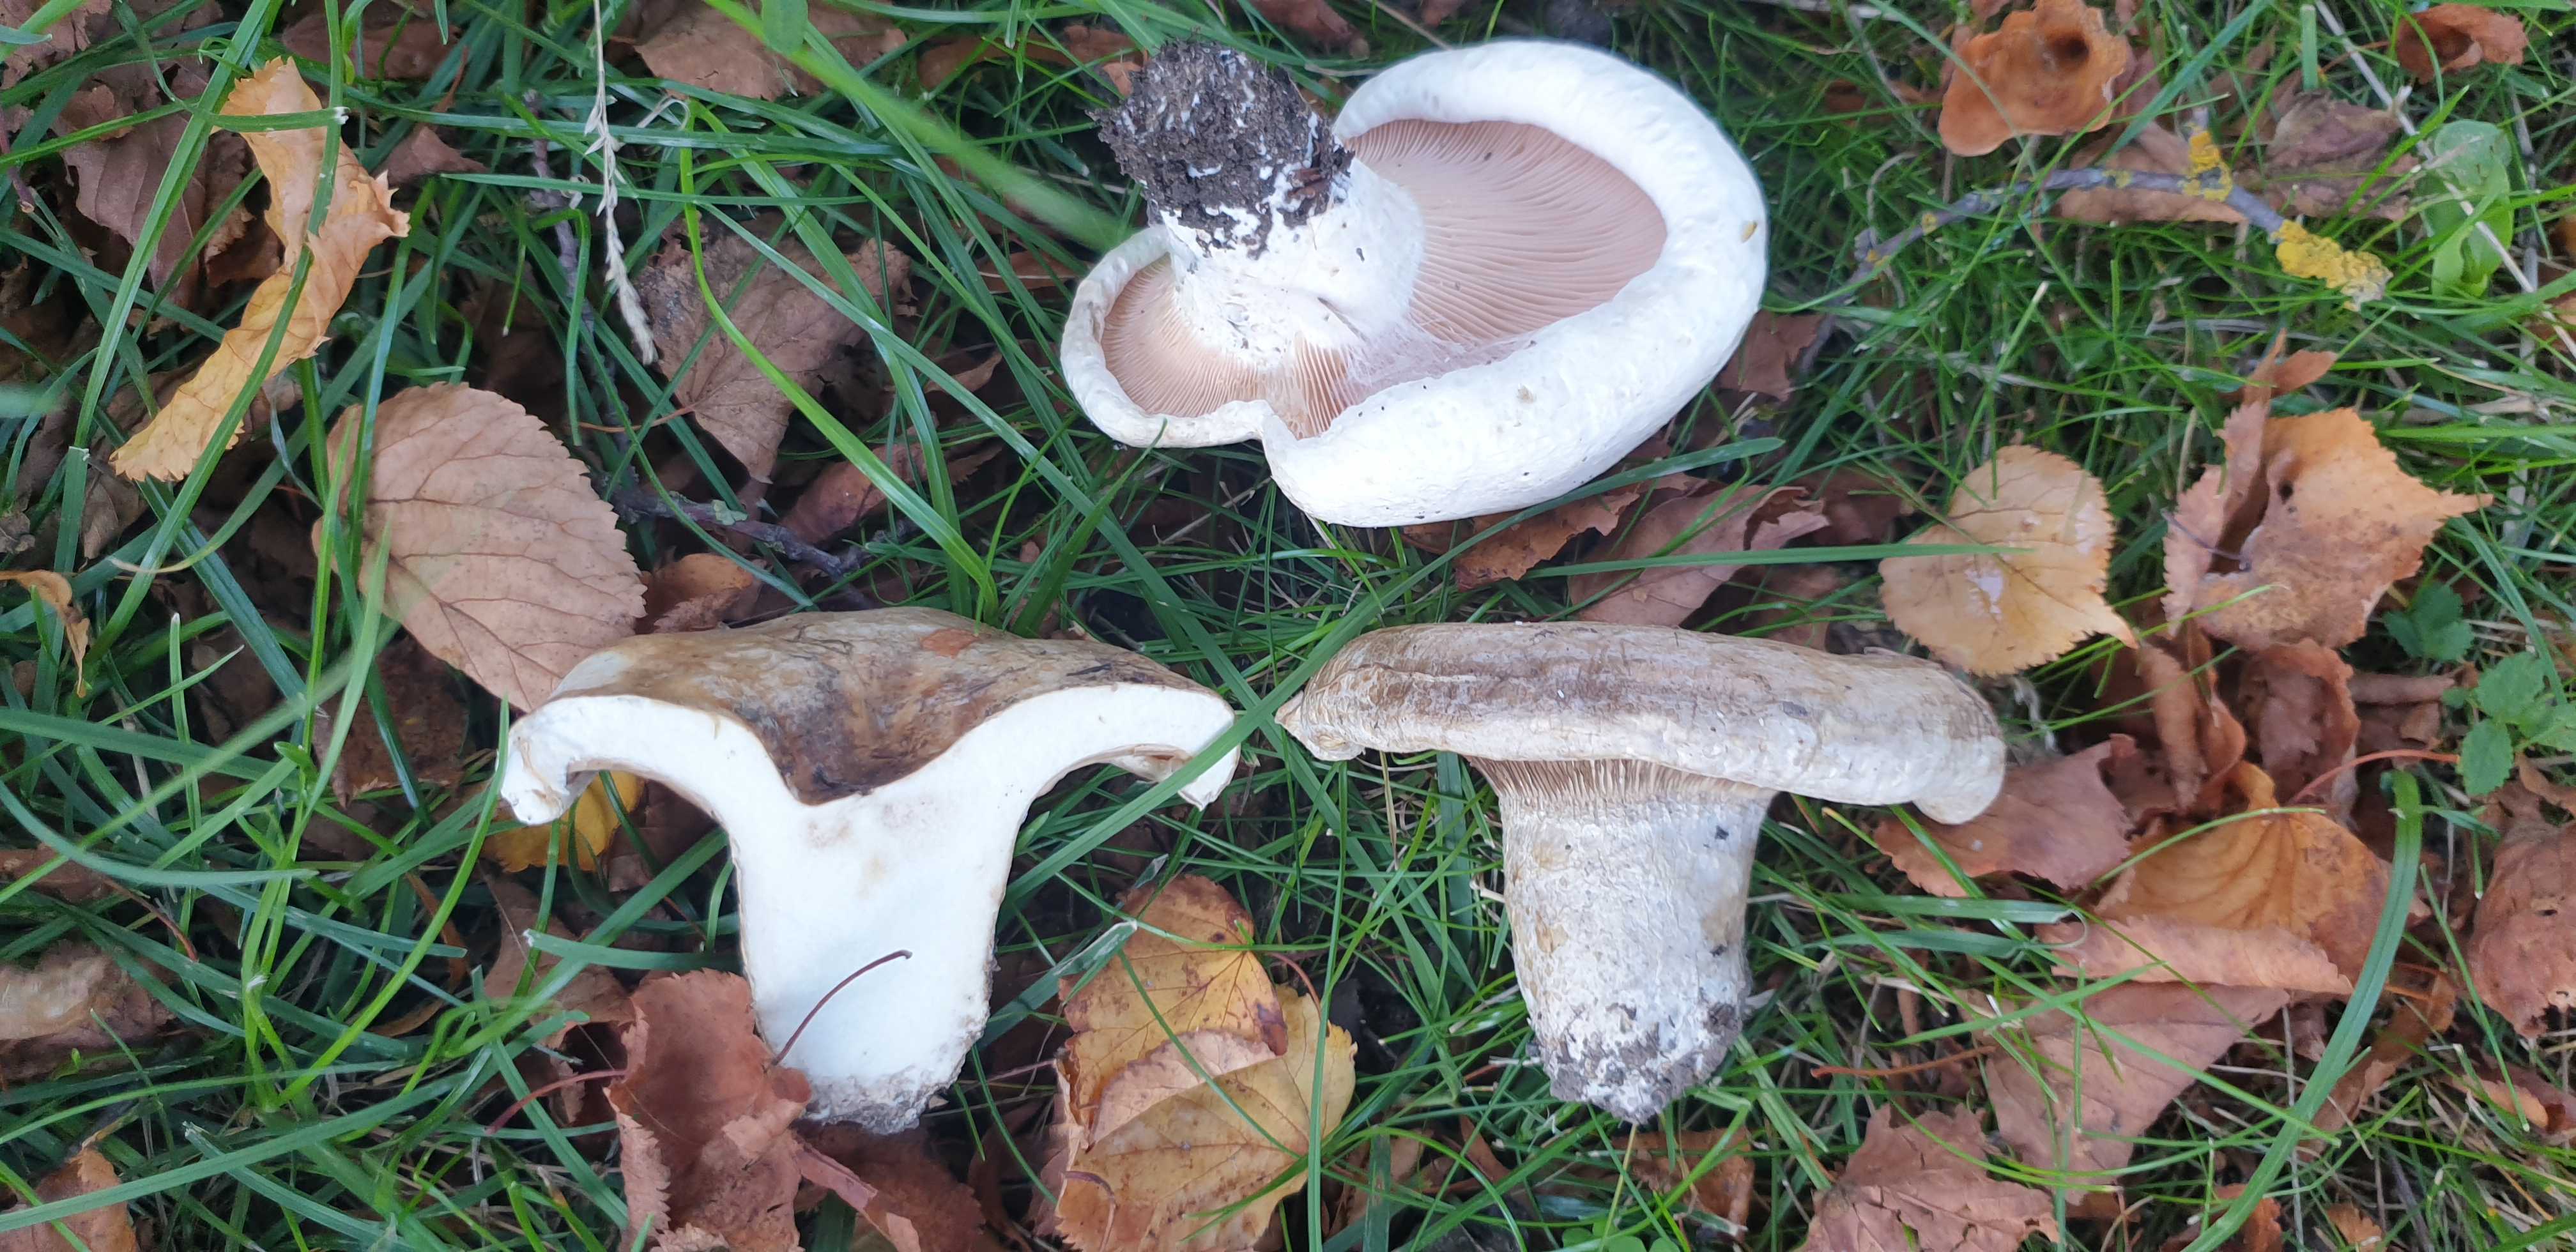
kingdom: Fungi
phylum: Basidiomycota
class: Agaricomycetes
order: Russulales
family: Russulaceae
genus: Lactarius
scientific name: Lactarius controversus
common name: rosabladet mælkehat
